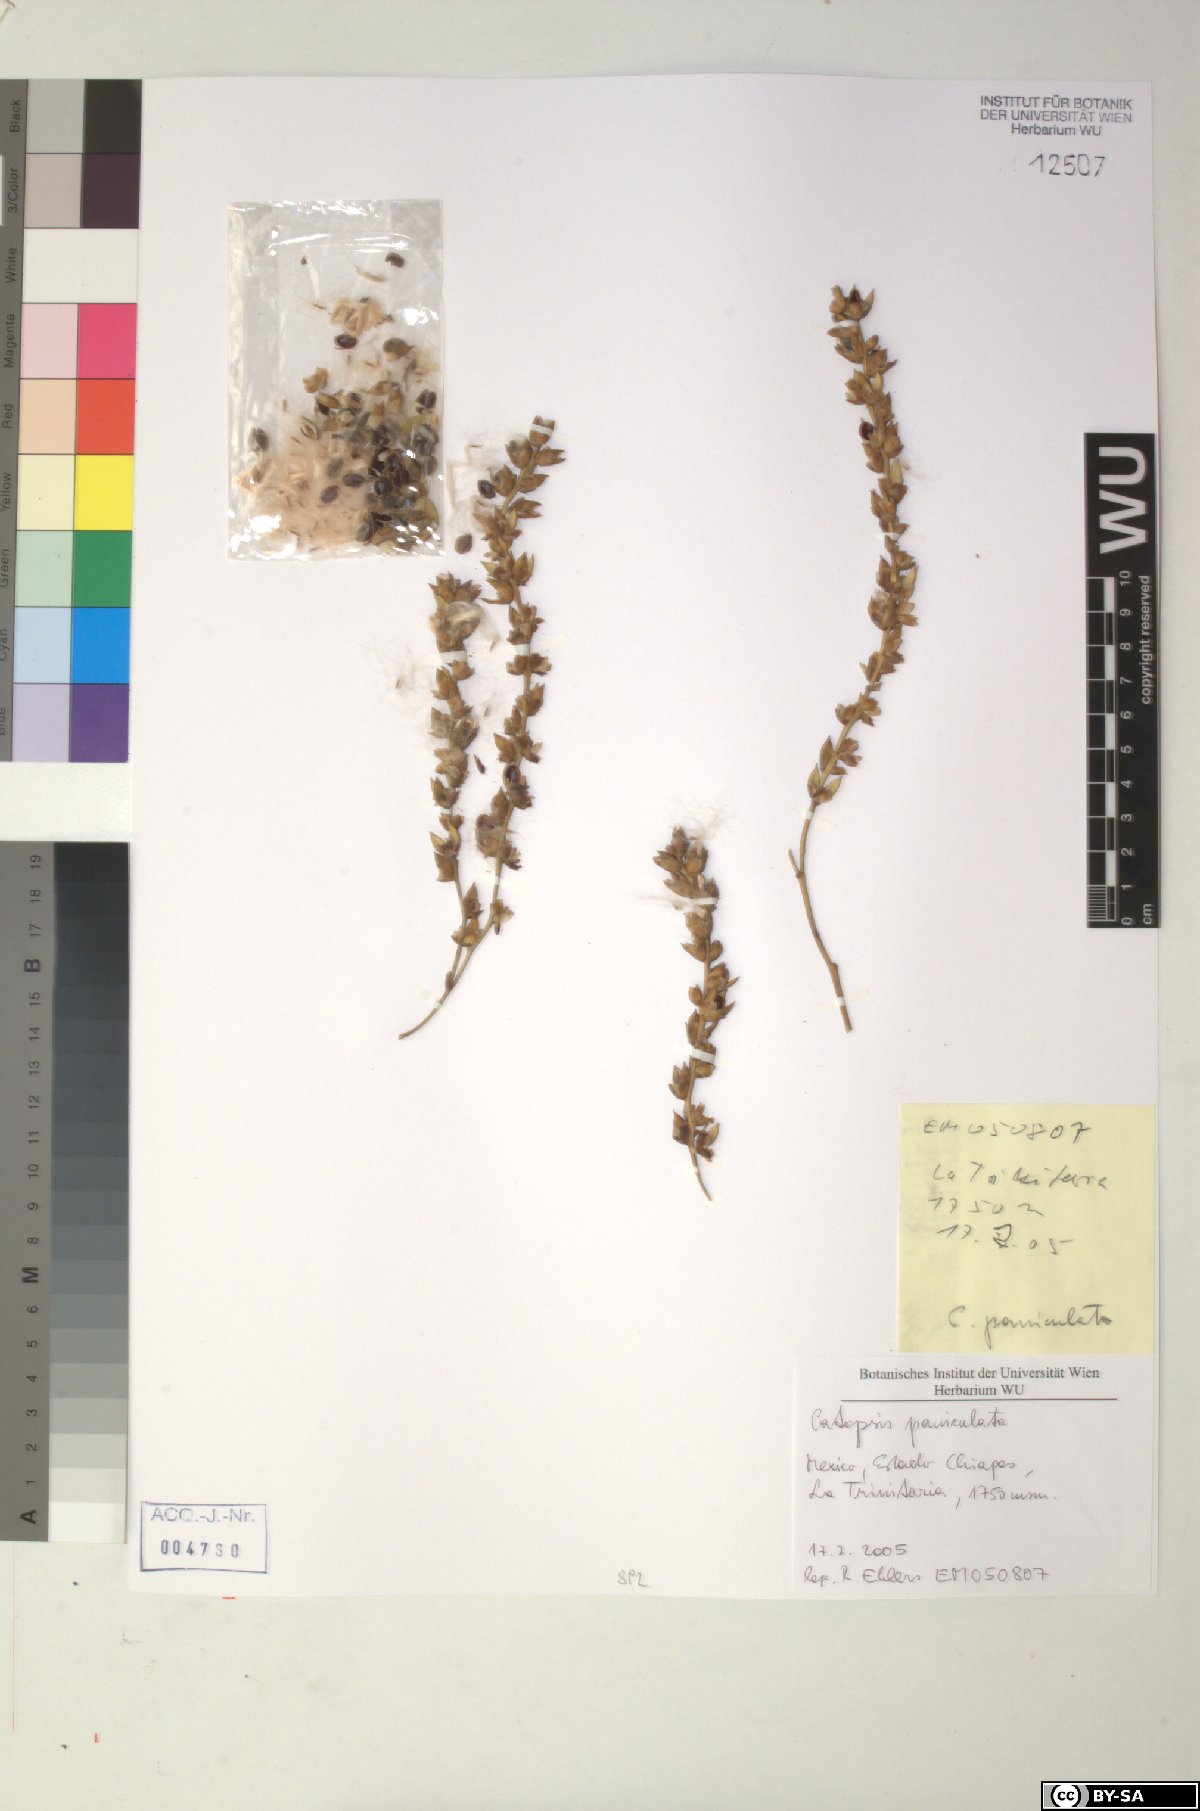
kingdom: Plantae
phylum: Tracheophyta
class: Liliopsida
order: Poales
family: Bromeliaceae
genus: Catopsis
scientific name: Catopsis paniculata
